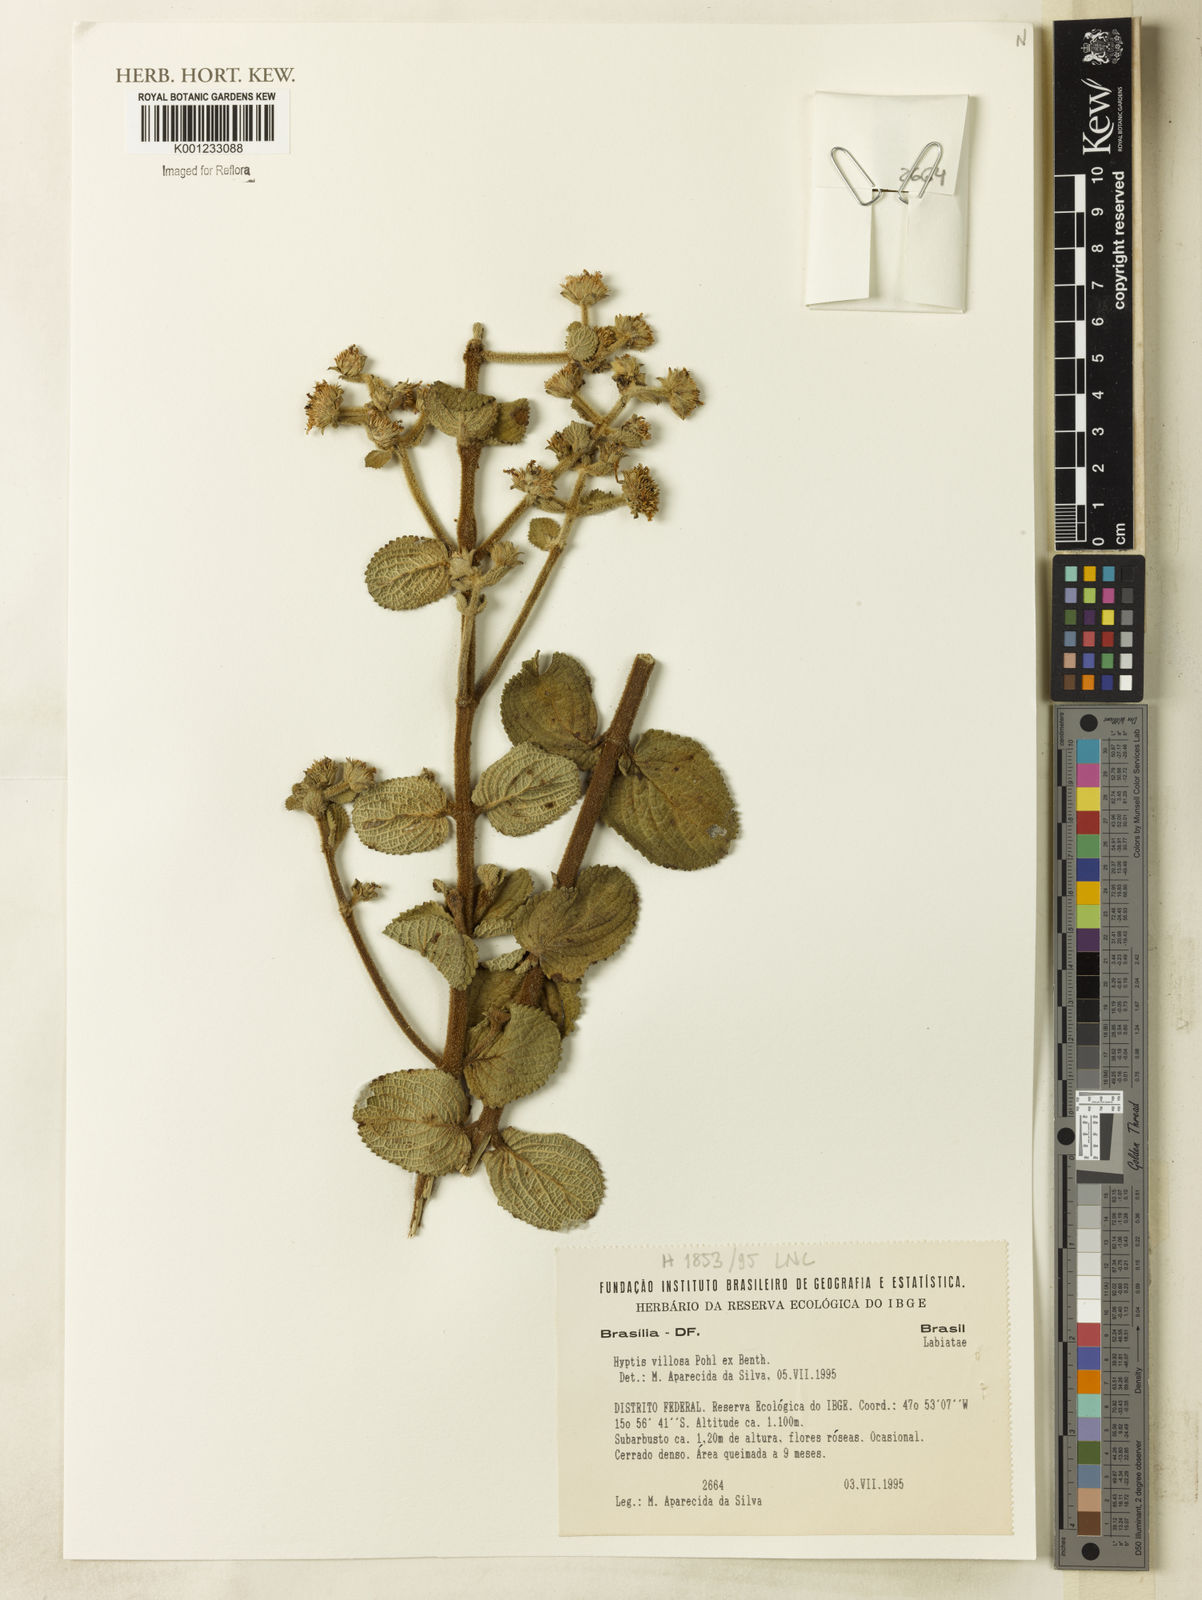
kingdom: Plantae
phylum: Tracheophyta
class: Magnoliopsida
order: Lamiales
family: Lamiaceae
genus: Hyptis
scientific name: Hyptis villosa
